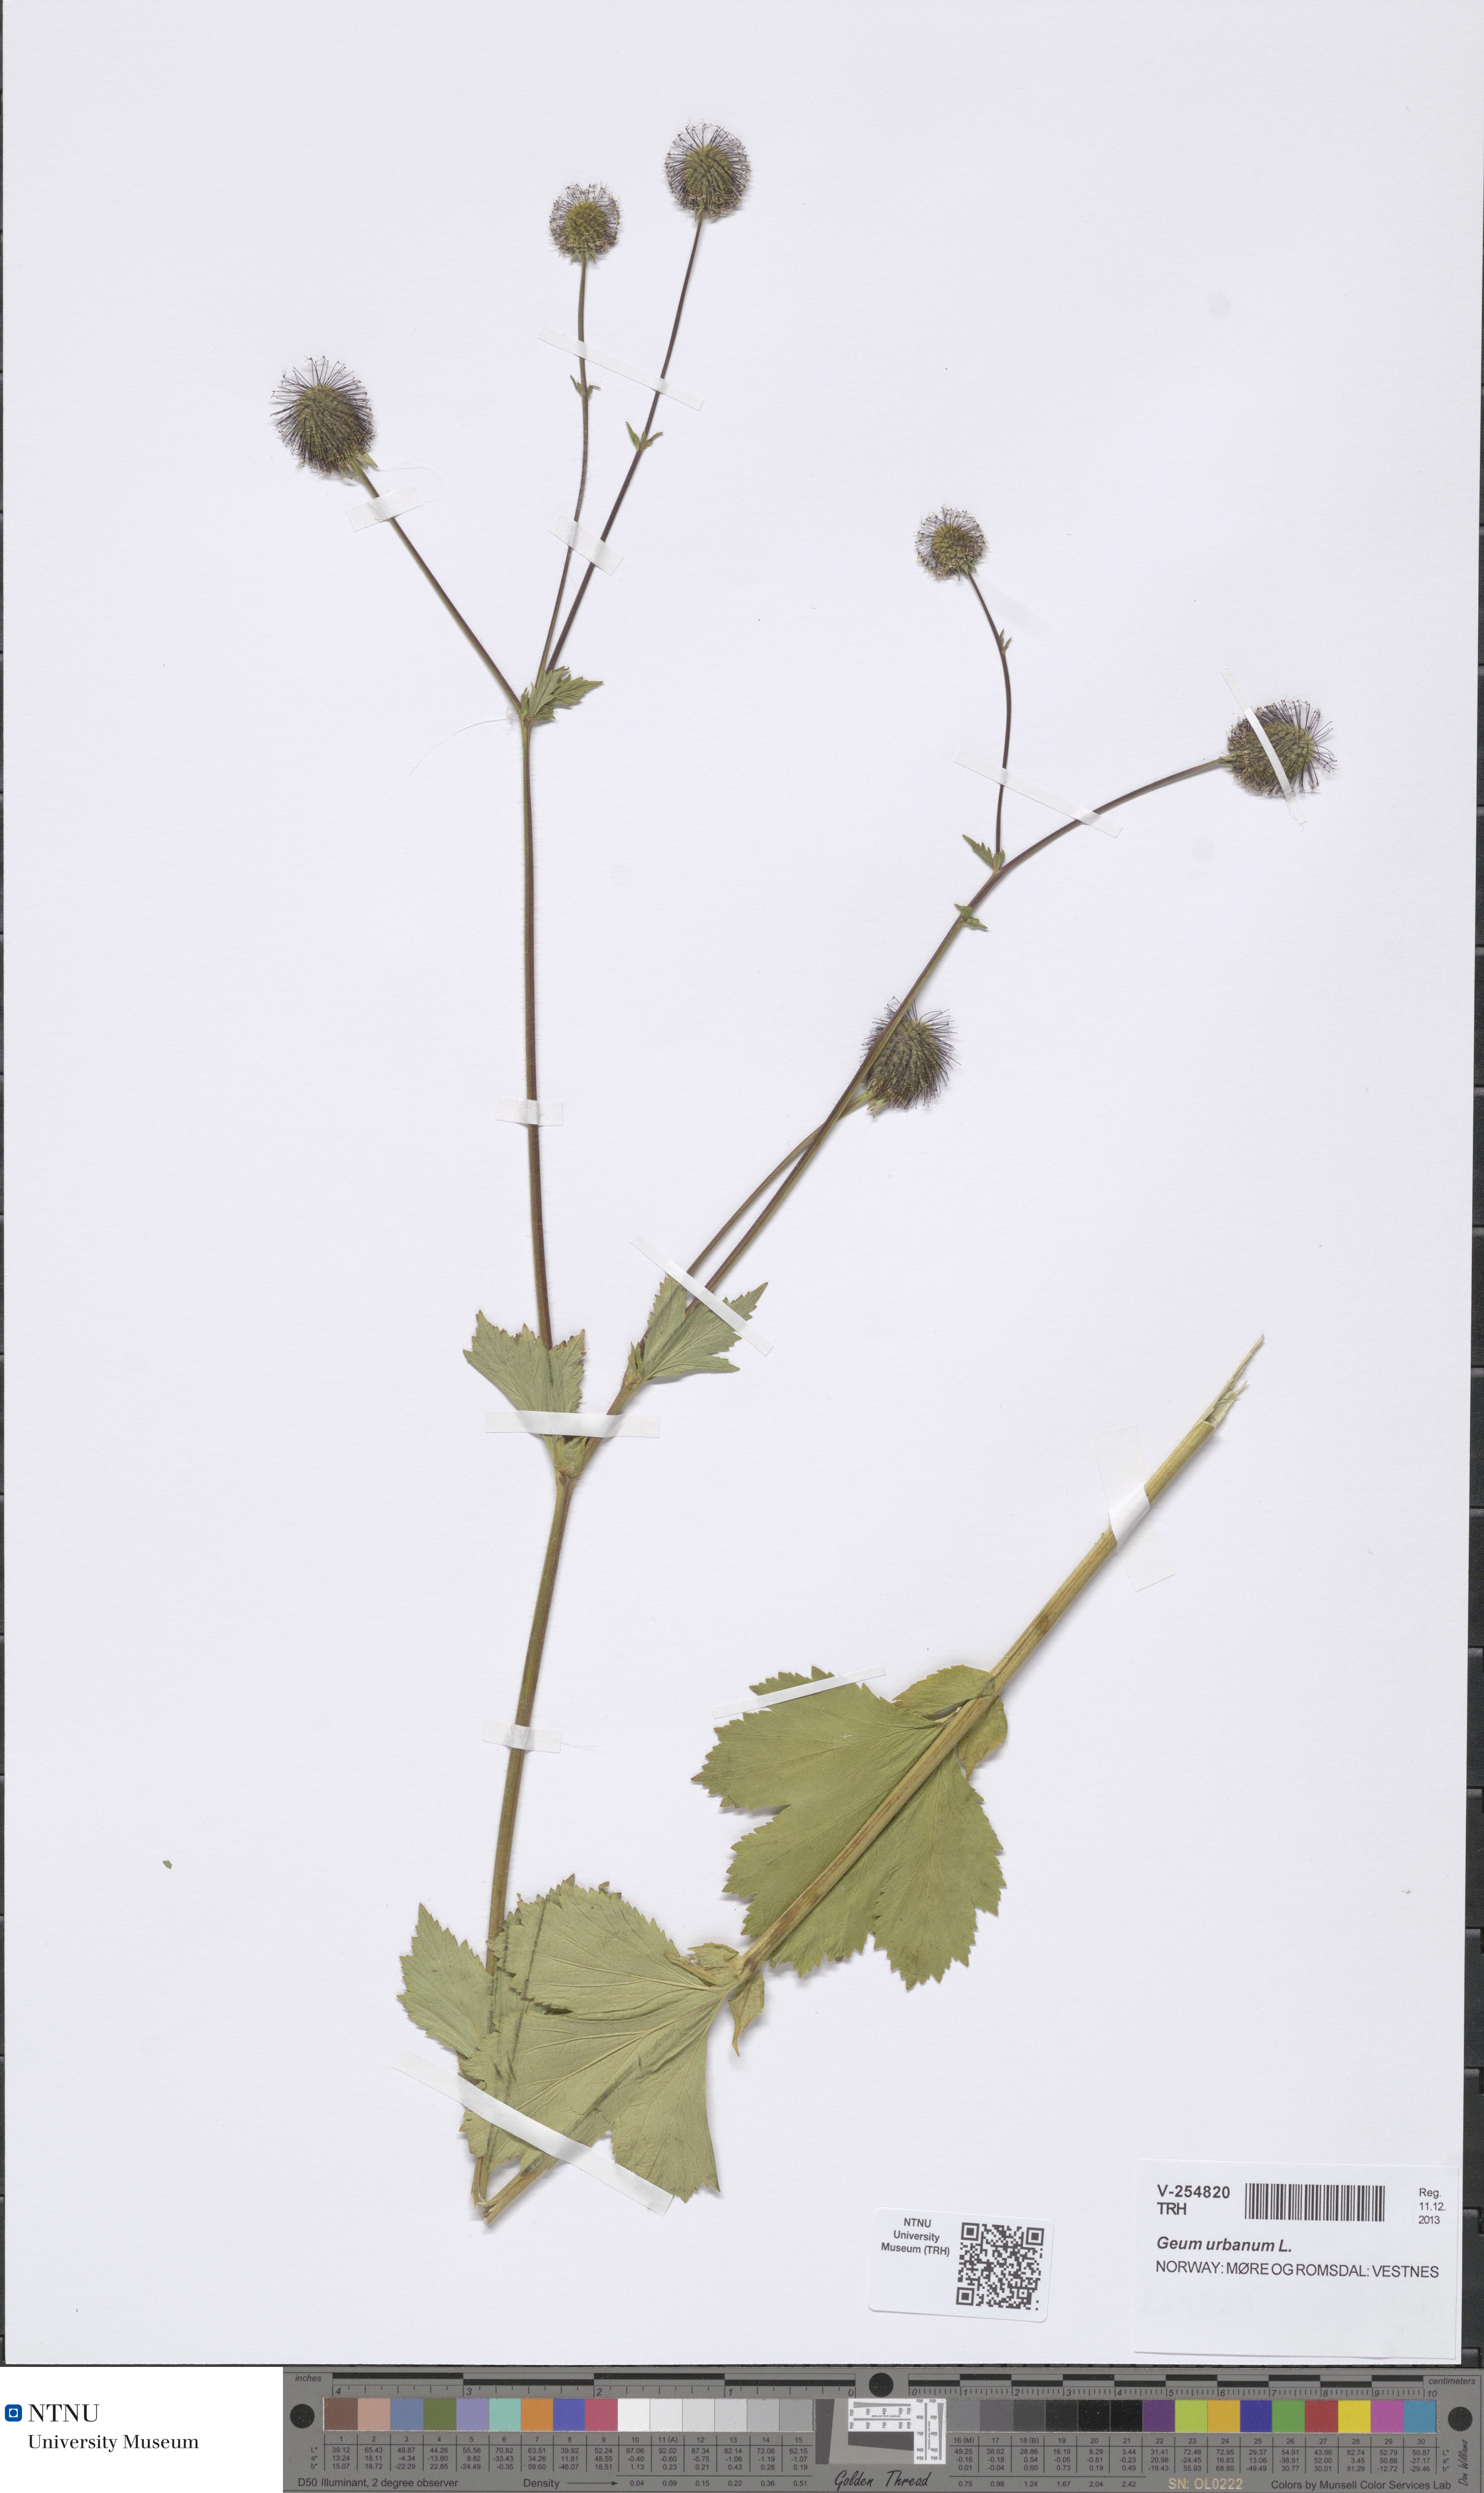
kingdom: Plantae
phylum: Tracheophyta
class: Magnoliopsida
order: Rosales
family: Rosaceae
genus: Geum
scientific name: Geum urbanum
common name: Wood avens
